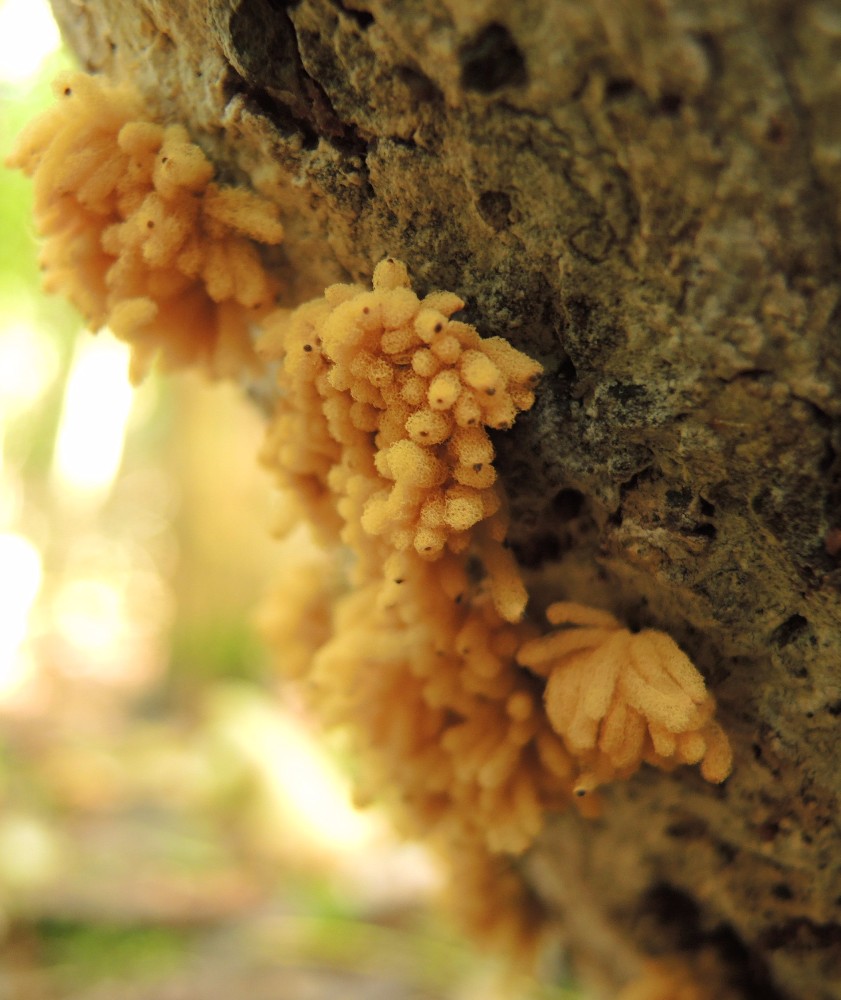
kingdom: Protozoa
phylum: Mycetozoa
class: Myxomycetes
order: Trichiales
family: Arcyriaceae
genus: Arcyria
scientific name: Arcyria obvelata
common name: okkergul skålsvøb
